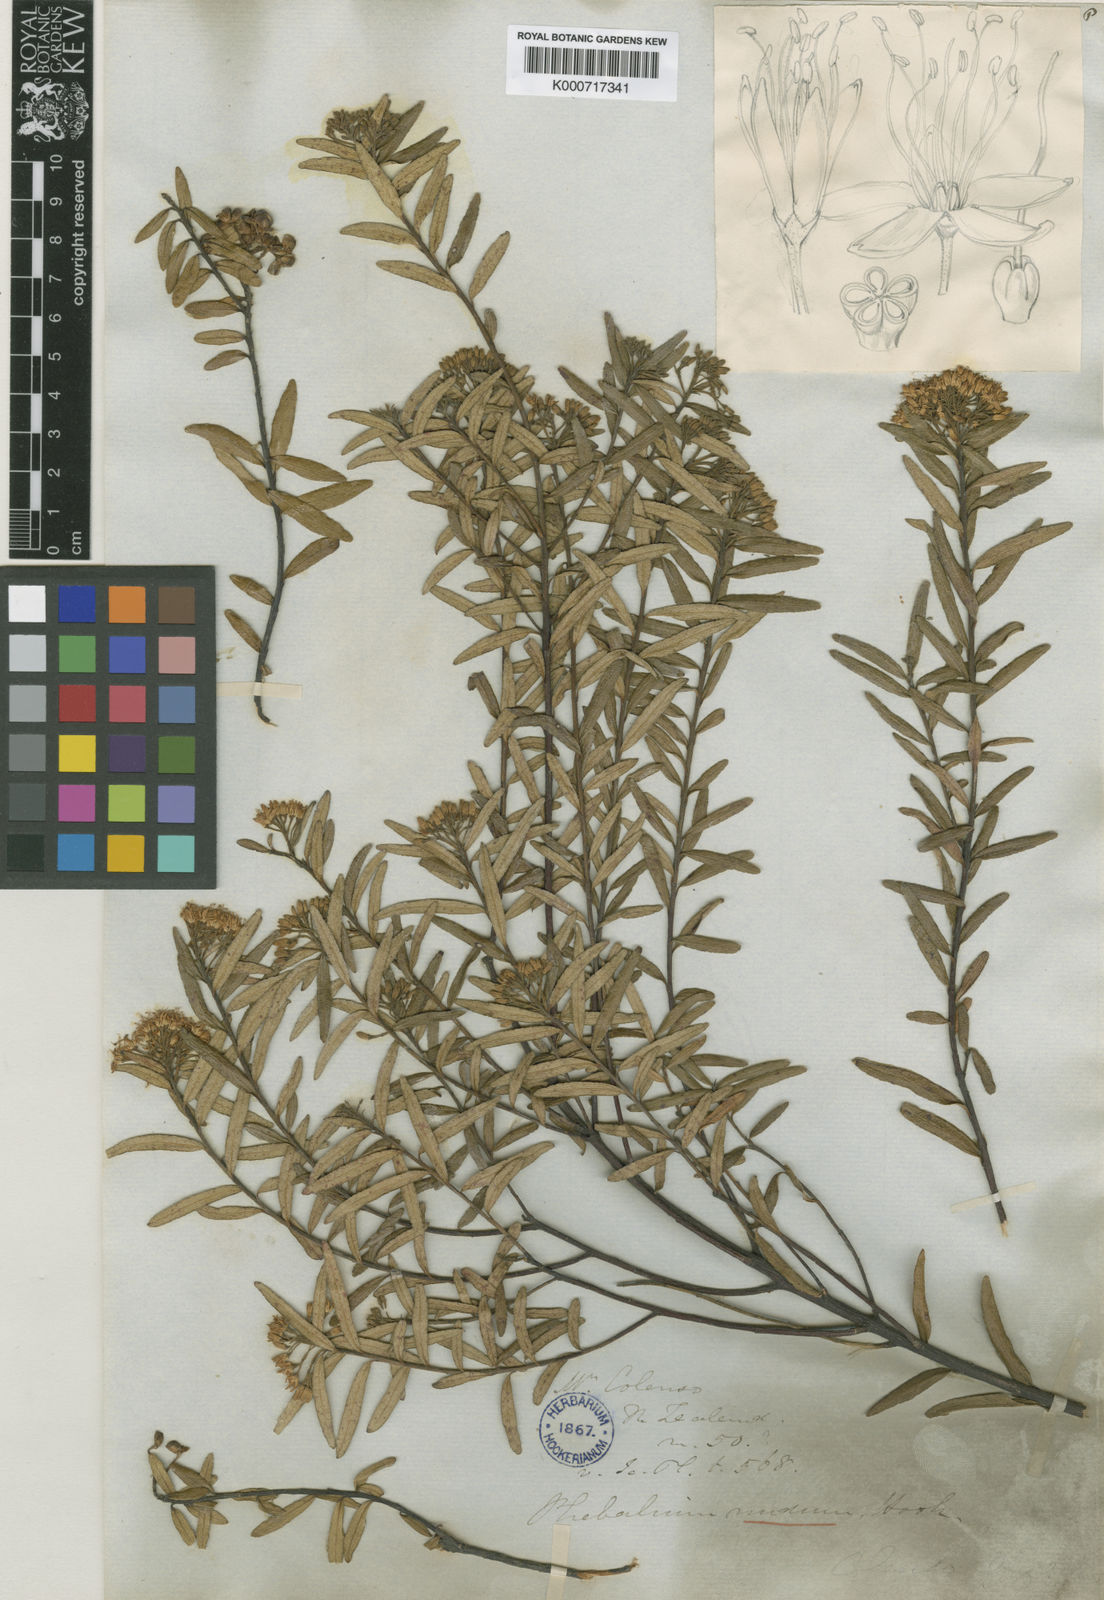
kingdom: Plantae
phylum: Tracheophyta
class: Magnoliopsida
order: Sapindales
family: Rutaceae
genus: Leionema
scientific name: Leionema nudum
